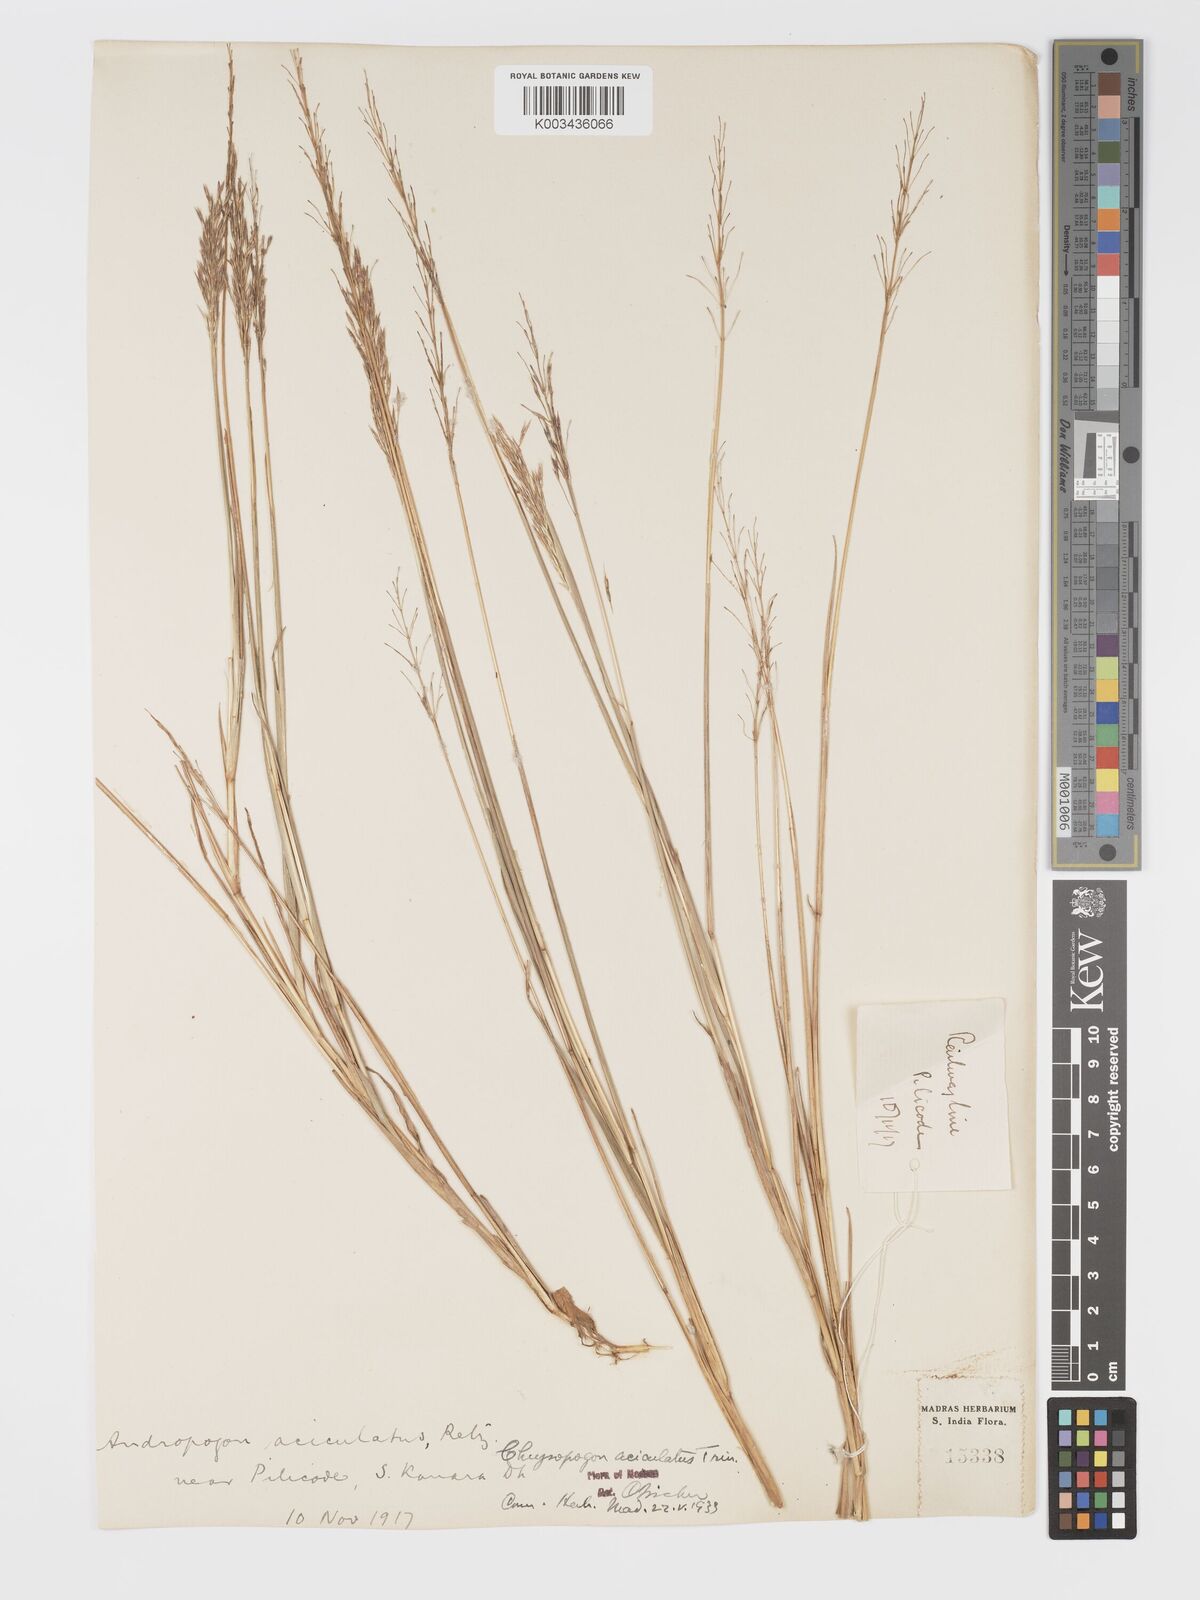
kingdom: Plantae
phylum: Tracheophyta
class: Liliopsida
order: Poales
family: Poaceae
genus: Chrysopogon
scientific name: Chrysopogon aciculatus
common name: Pilipiliula
